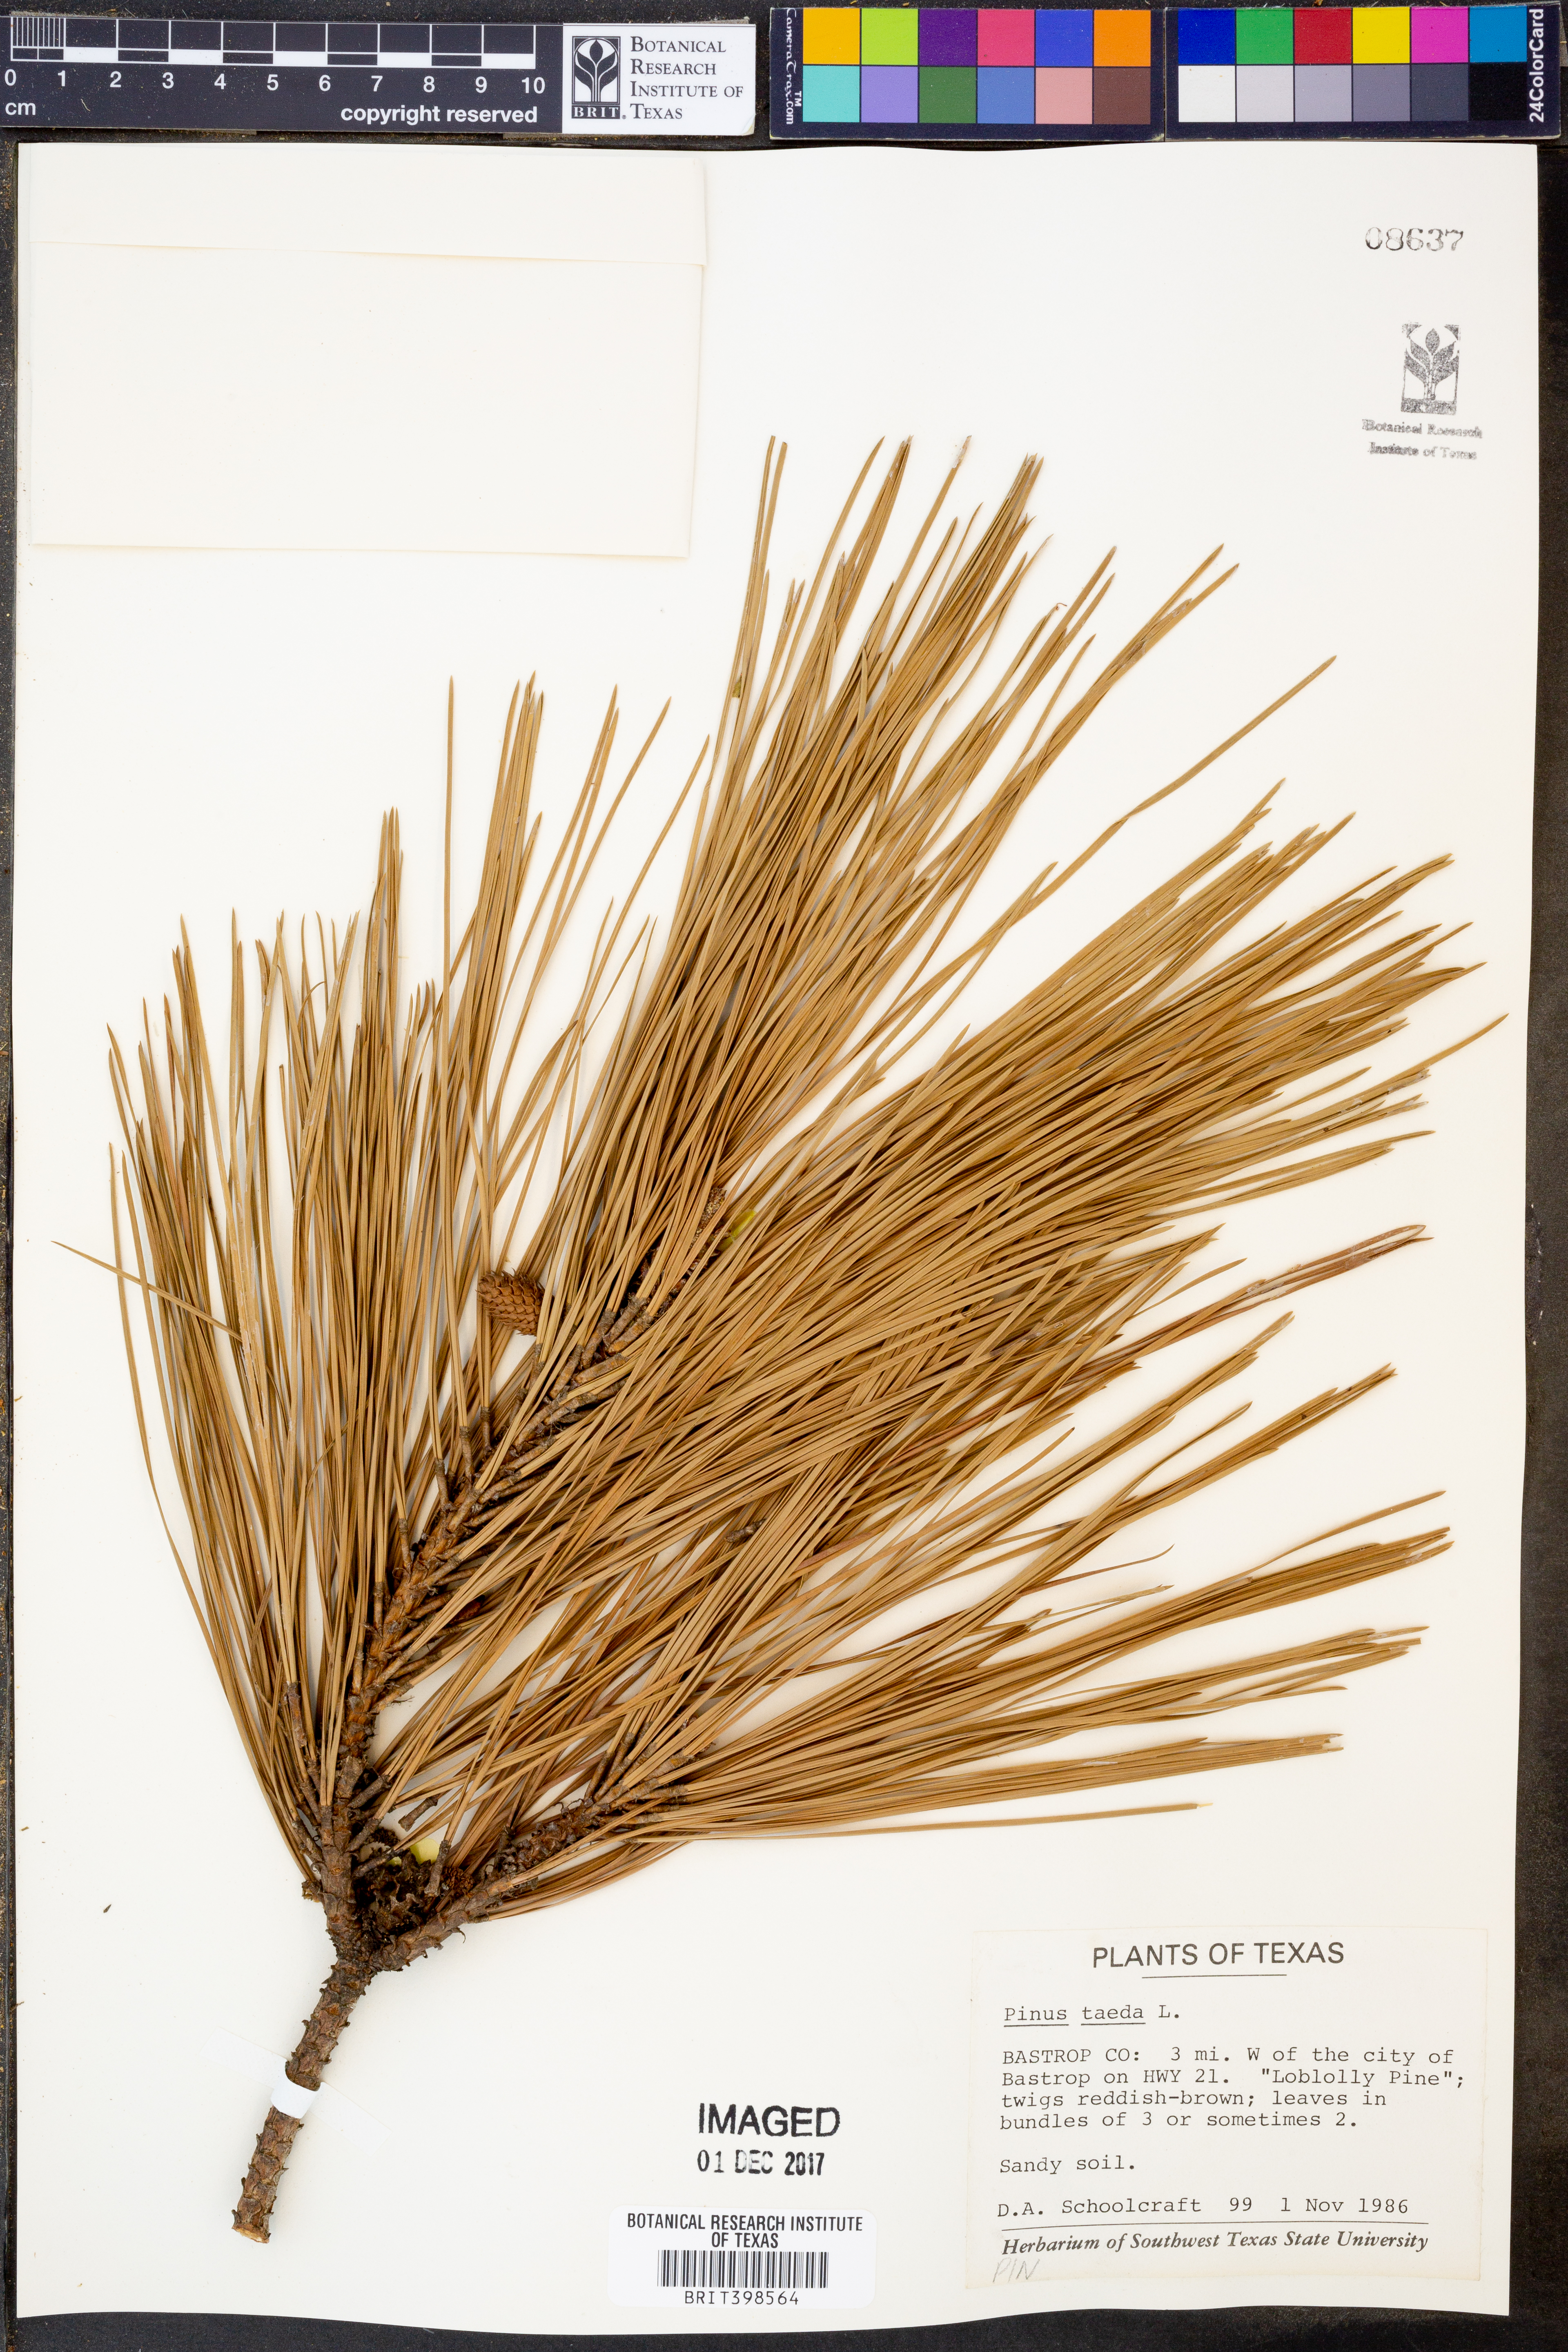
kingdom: Plantae
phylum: Tracheophyta
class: Pinopsida
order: Pinales
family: Pinaceae
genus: Pinus
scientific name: Pinus taeda
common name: Loblolly pine
